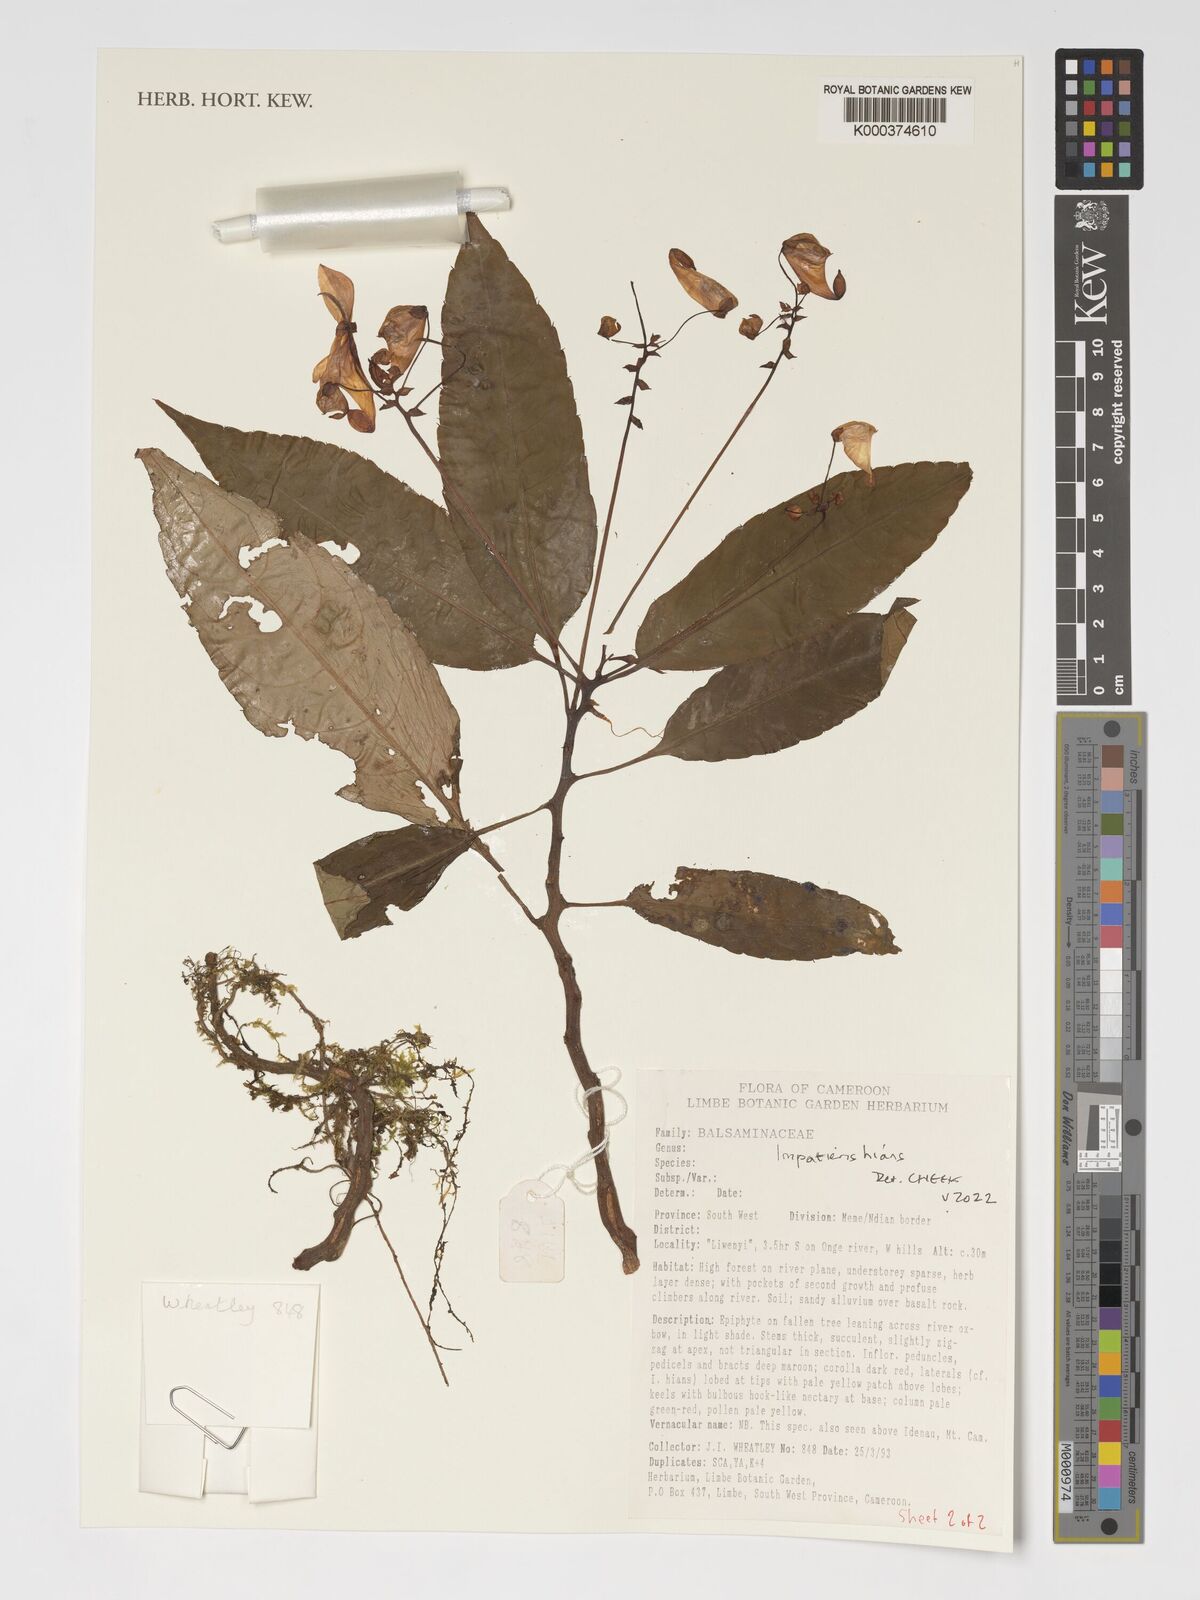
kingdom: Plantae
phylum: Tracheophyta
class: Magnoliopsida
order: Ericales
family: Balsaminaceae
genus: Impatiens
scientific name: Impatiens hians
